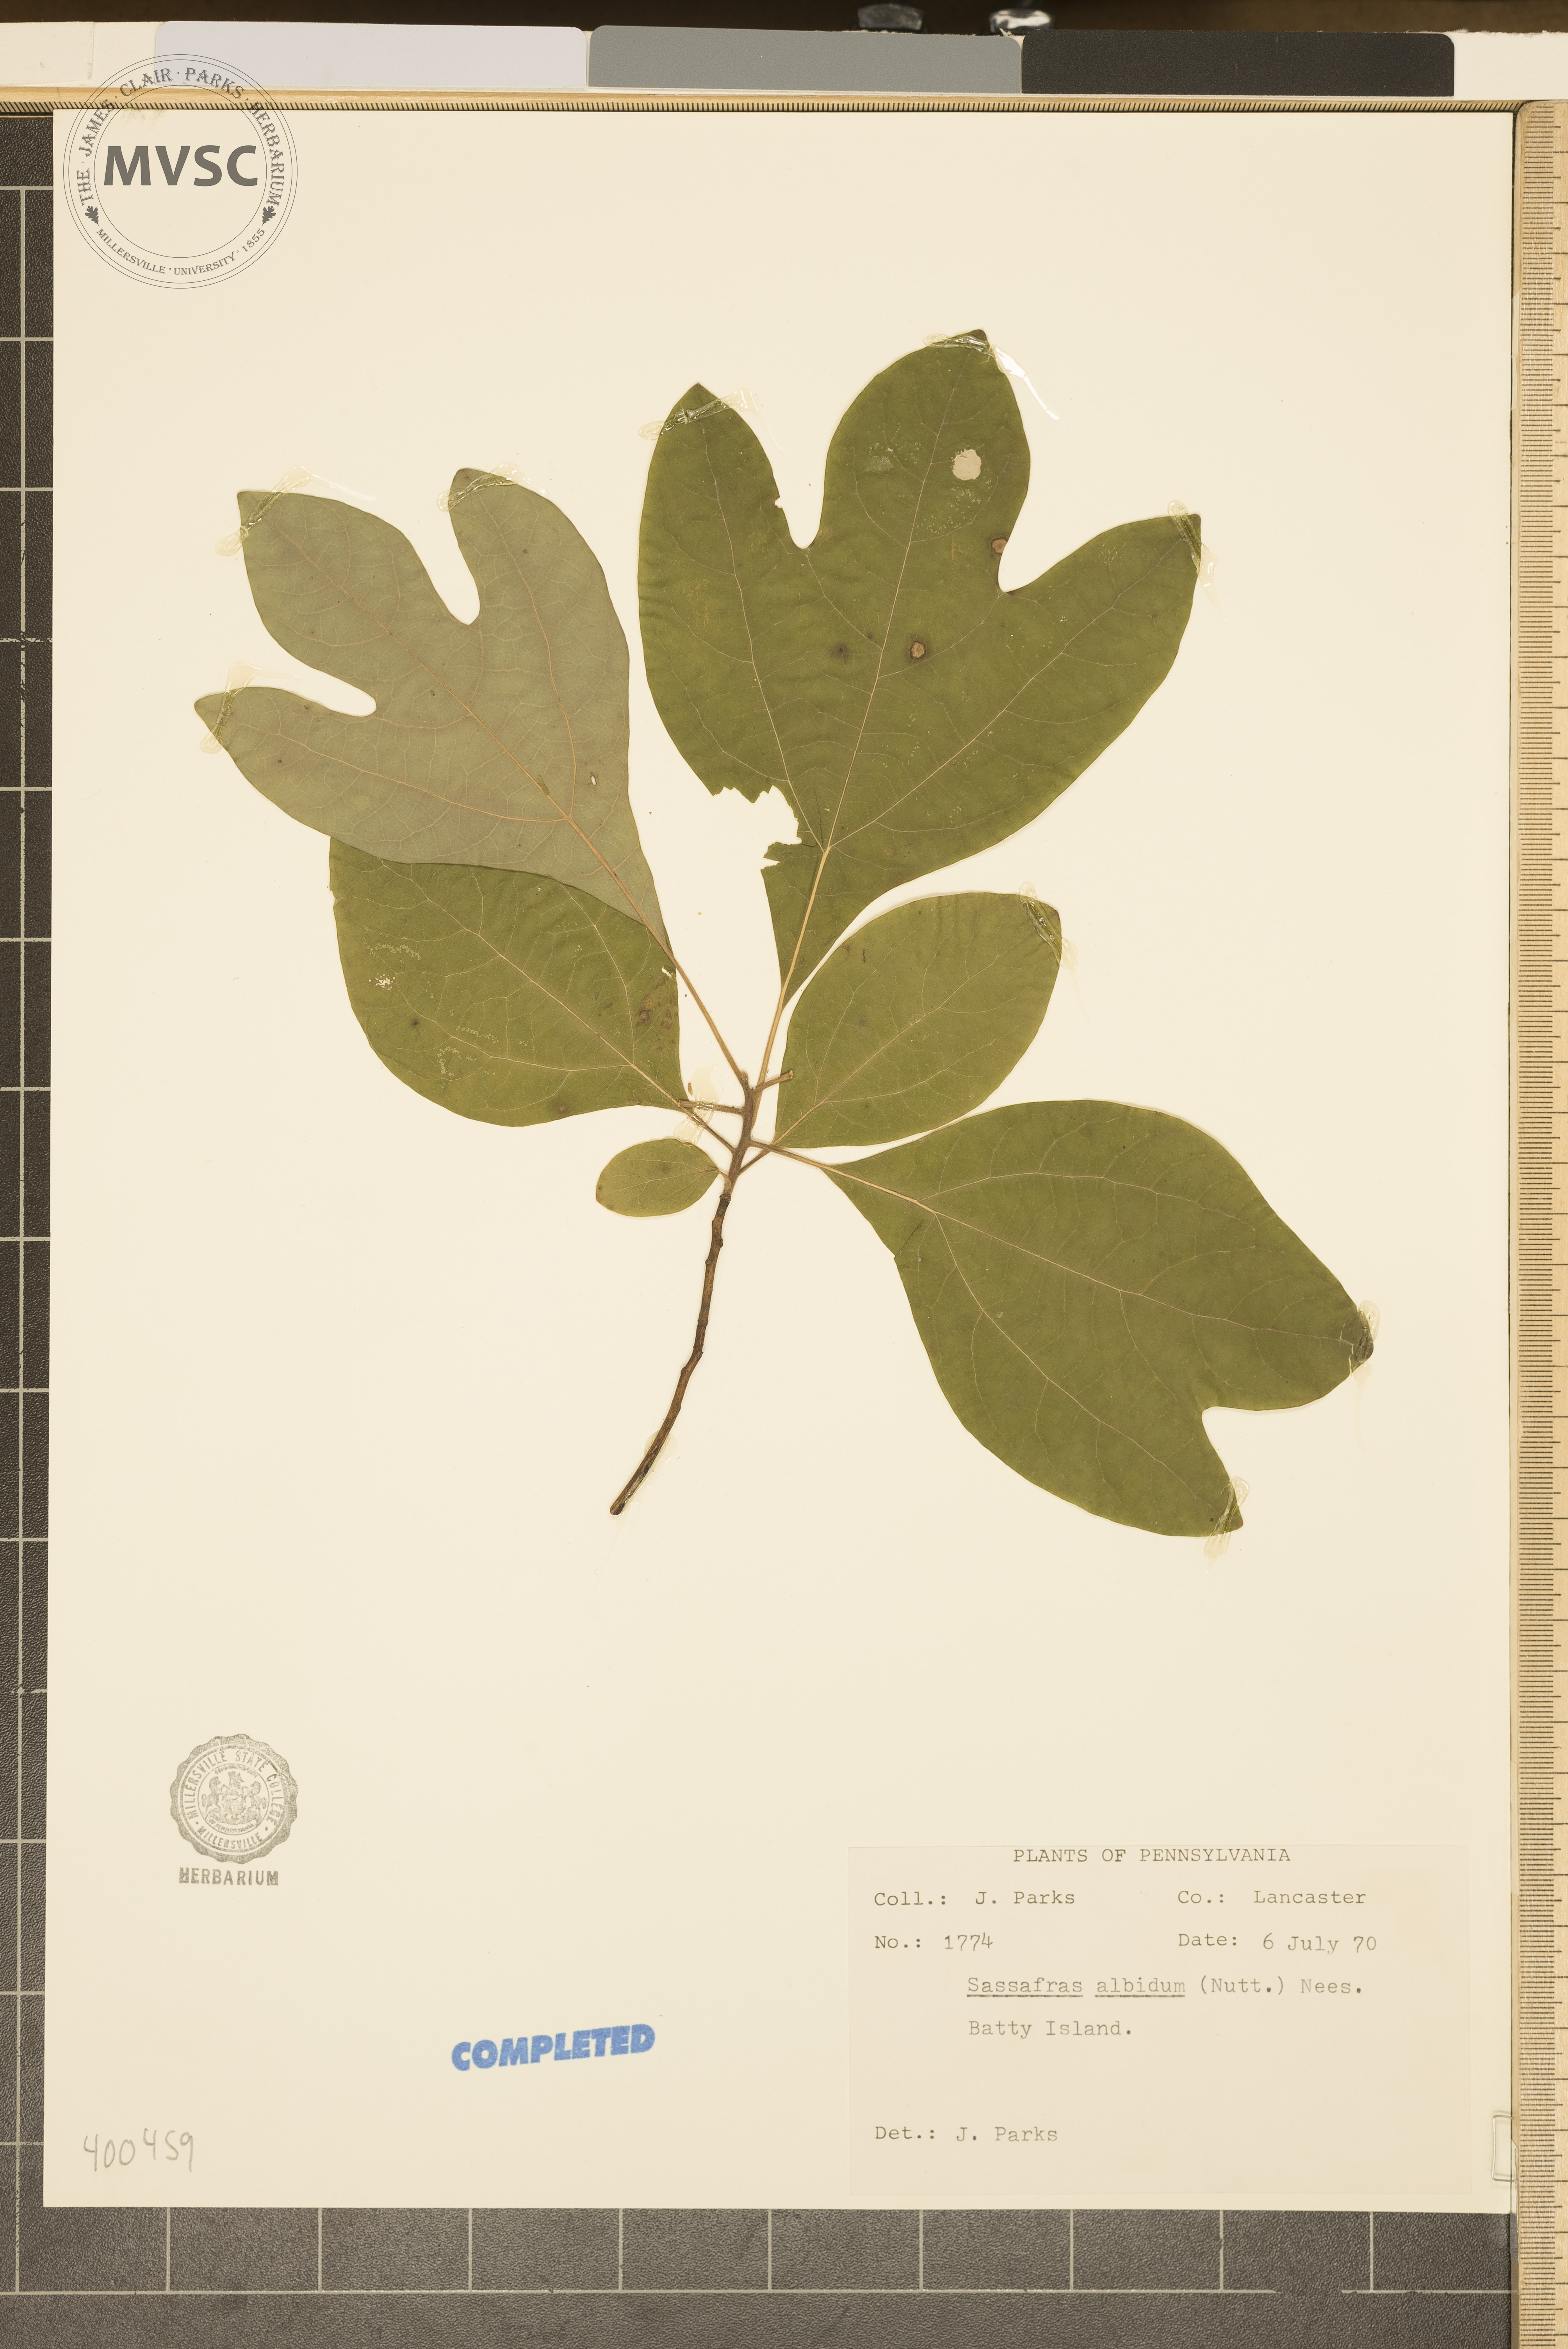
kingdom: Plantae
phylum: Tracheophyta
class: Magnoliopsida
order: Laurales
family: Lauraceae
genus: Sassafras
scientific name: Sassafras albidum
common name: sassafras
